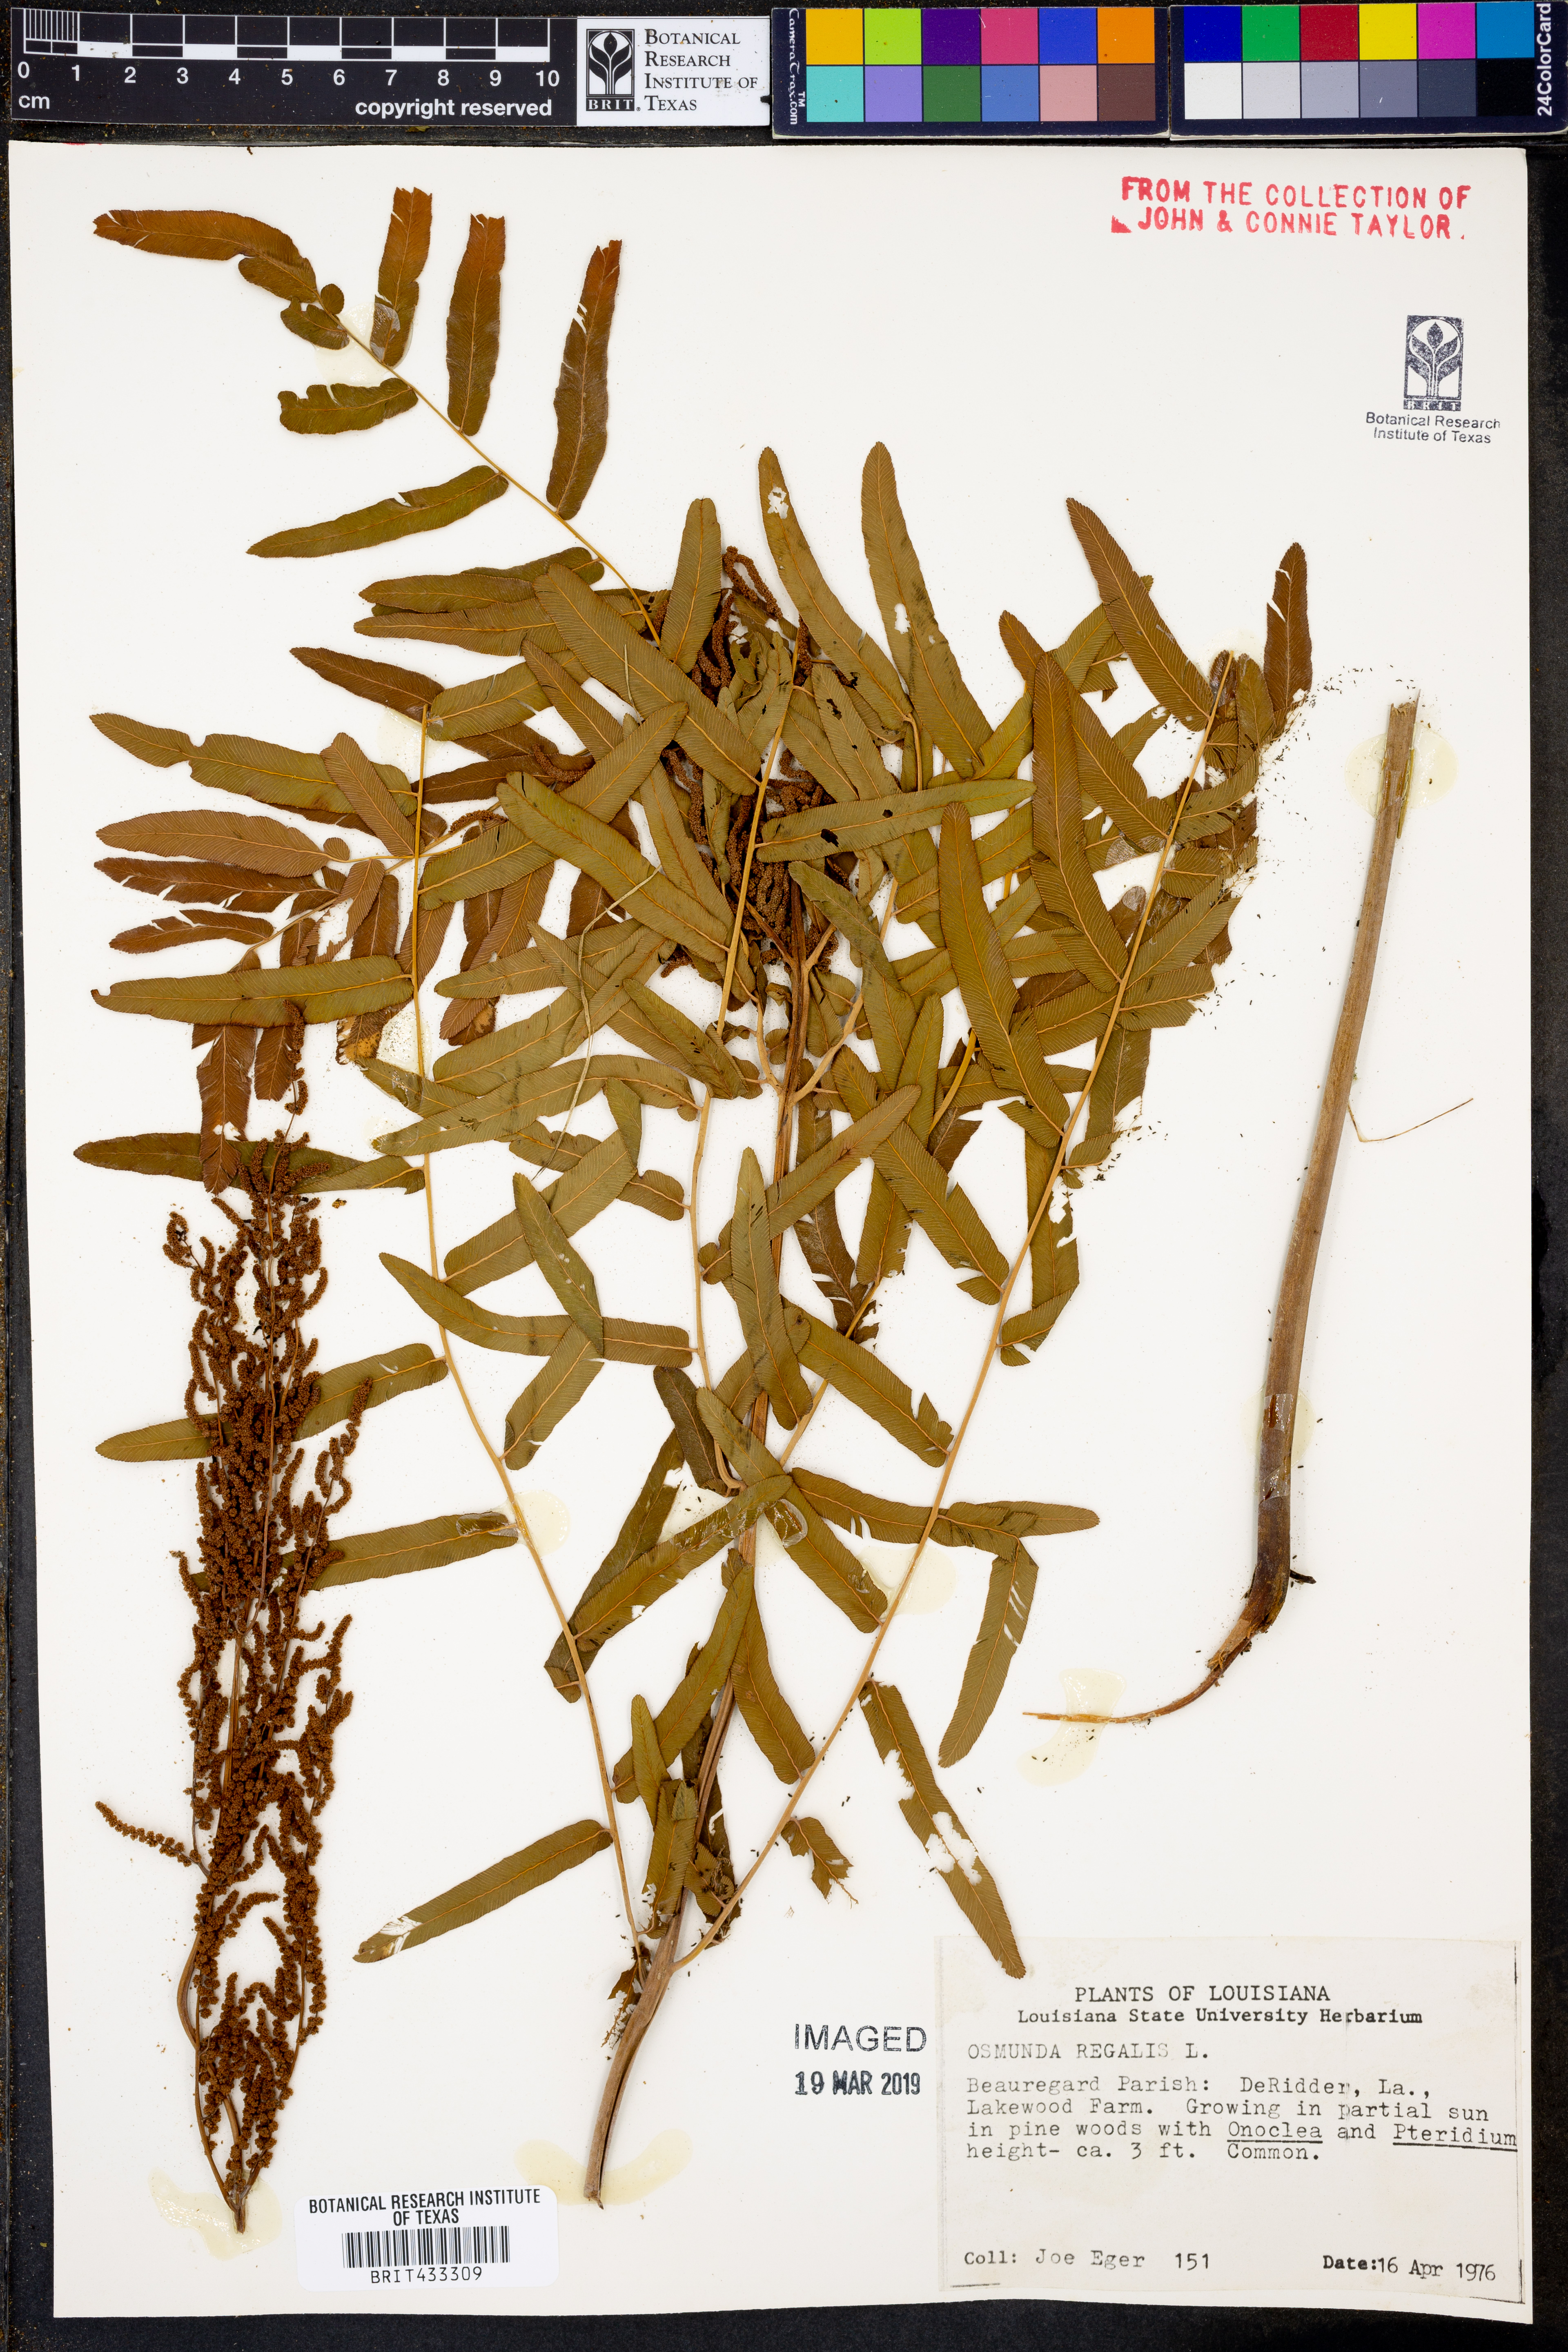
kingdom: Plantae
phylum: Tracheophyta
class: Polypodiopsida
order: Osmundales
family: Osmundaceae
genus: Osmunda
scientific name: Osmunda regalis
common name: Royal fern
